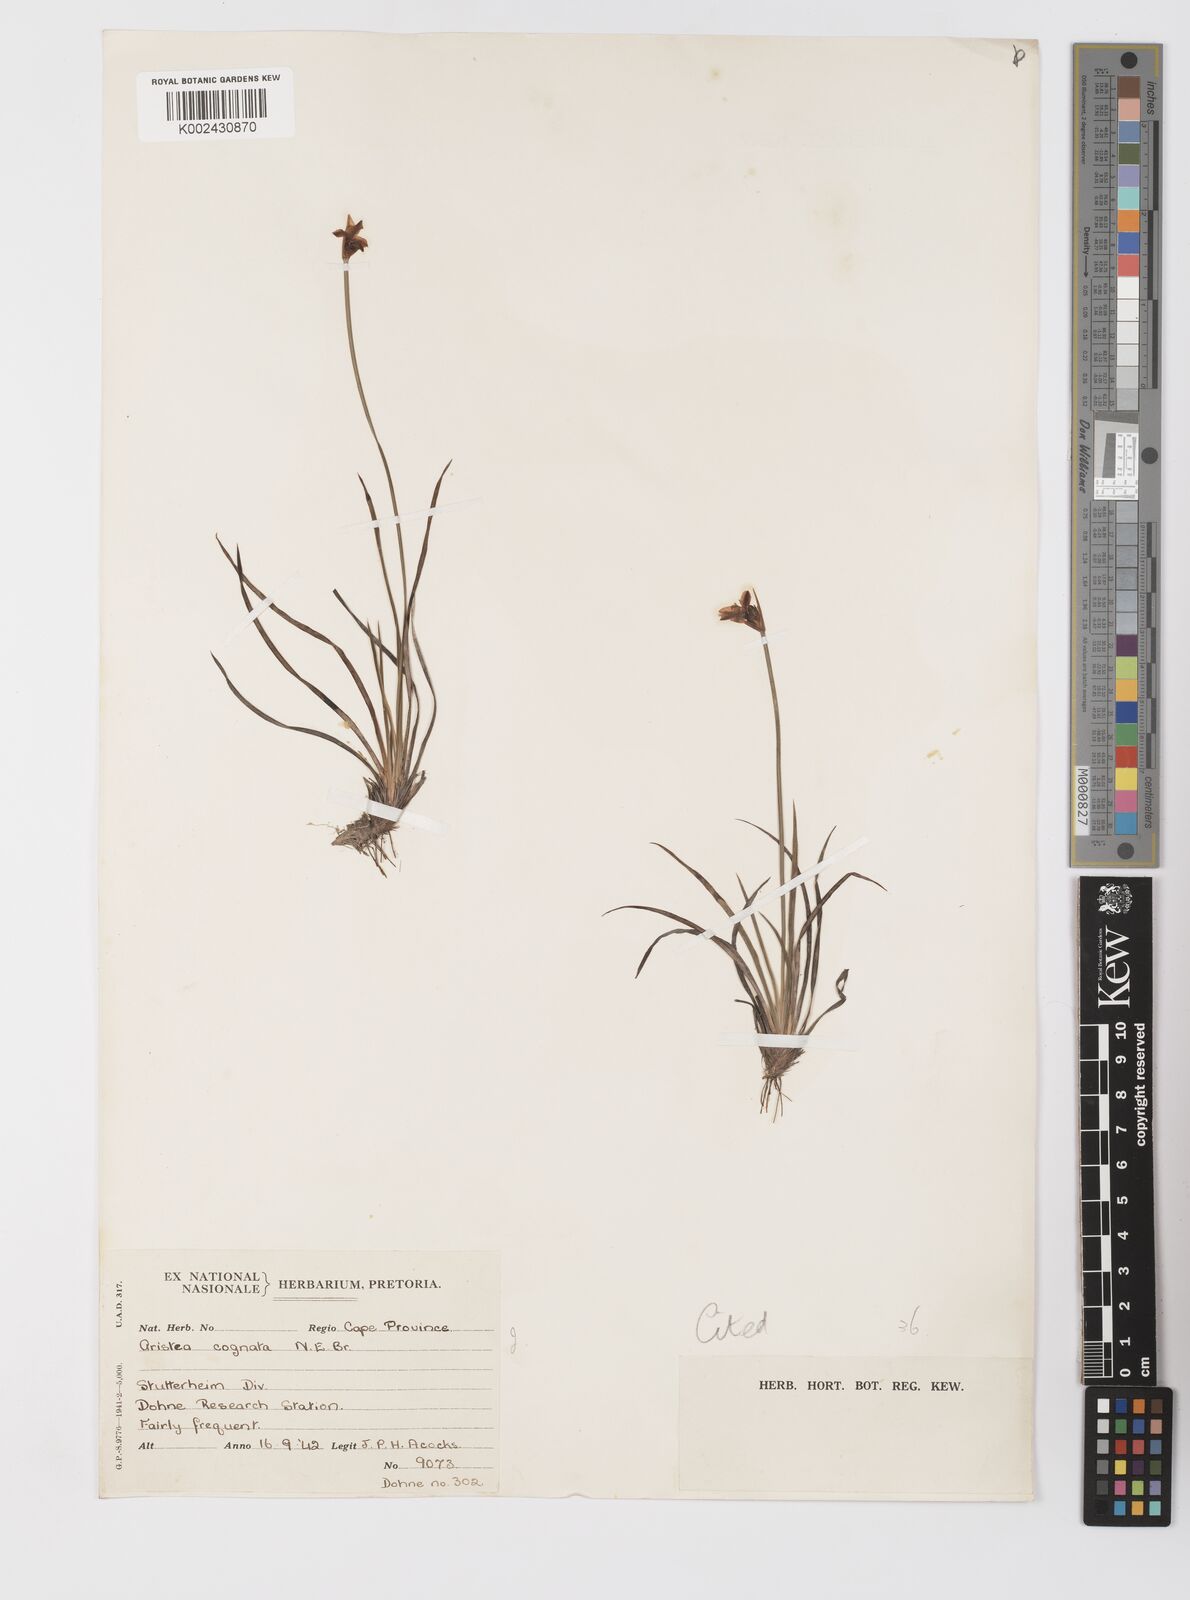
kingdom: Plantae
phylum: Tracheophyta
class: Liliopsida
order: Asparagales
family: Iridaceae
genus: Aristea
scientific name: Aristea abyssinica
